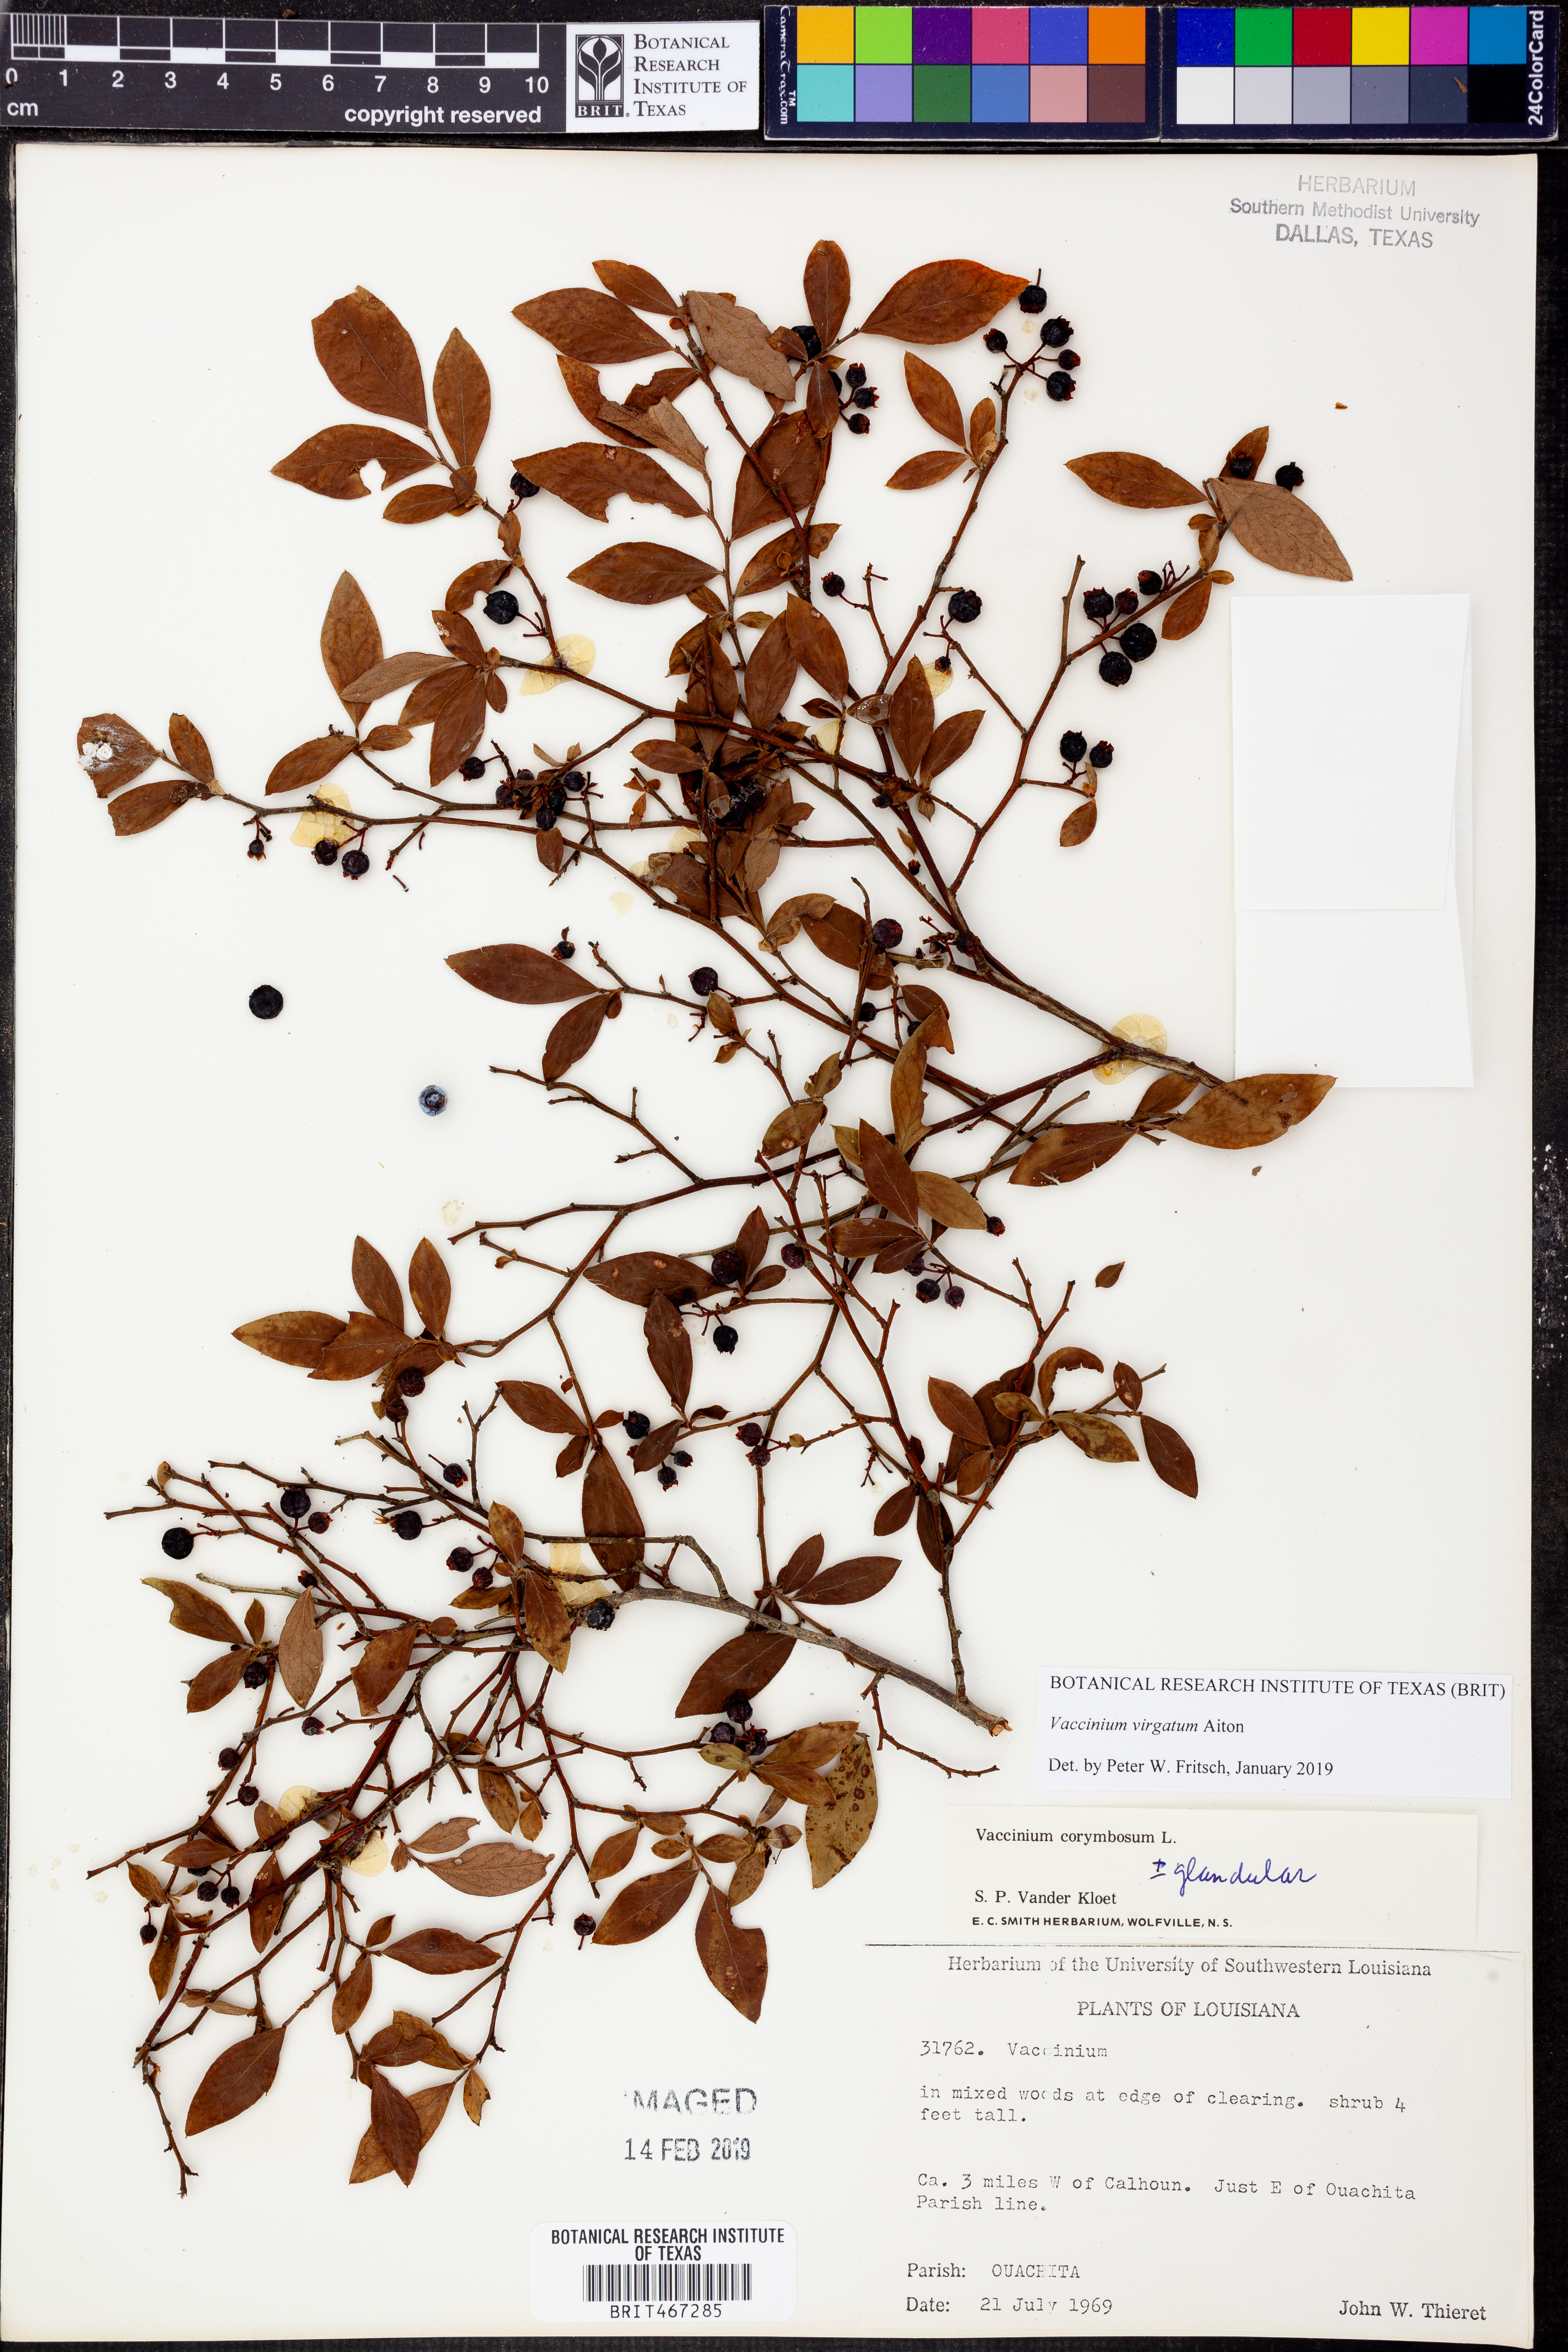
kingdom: Plantae
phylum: Tracheophyta
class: Magnoliopsida
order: Ericales
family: Ericaceae
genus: Vaccinium
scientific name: Vaccinium corymbosum
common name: Blueberry
